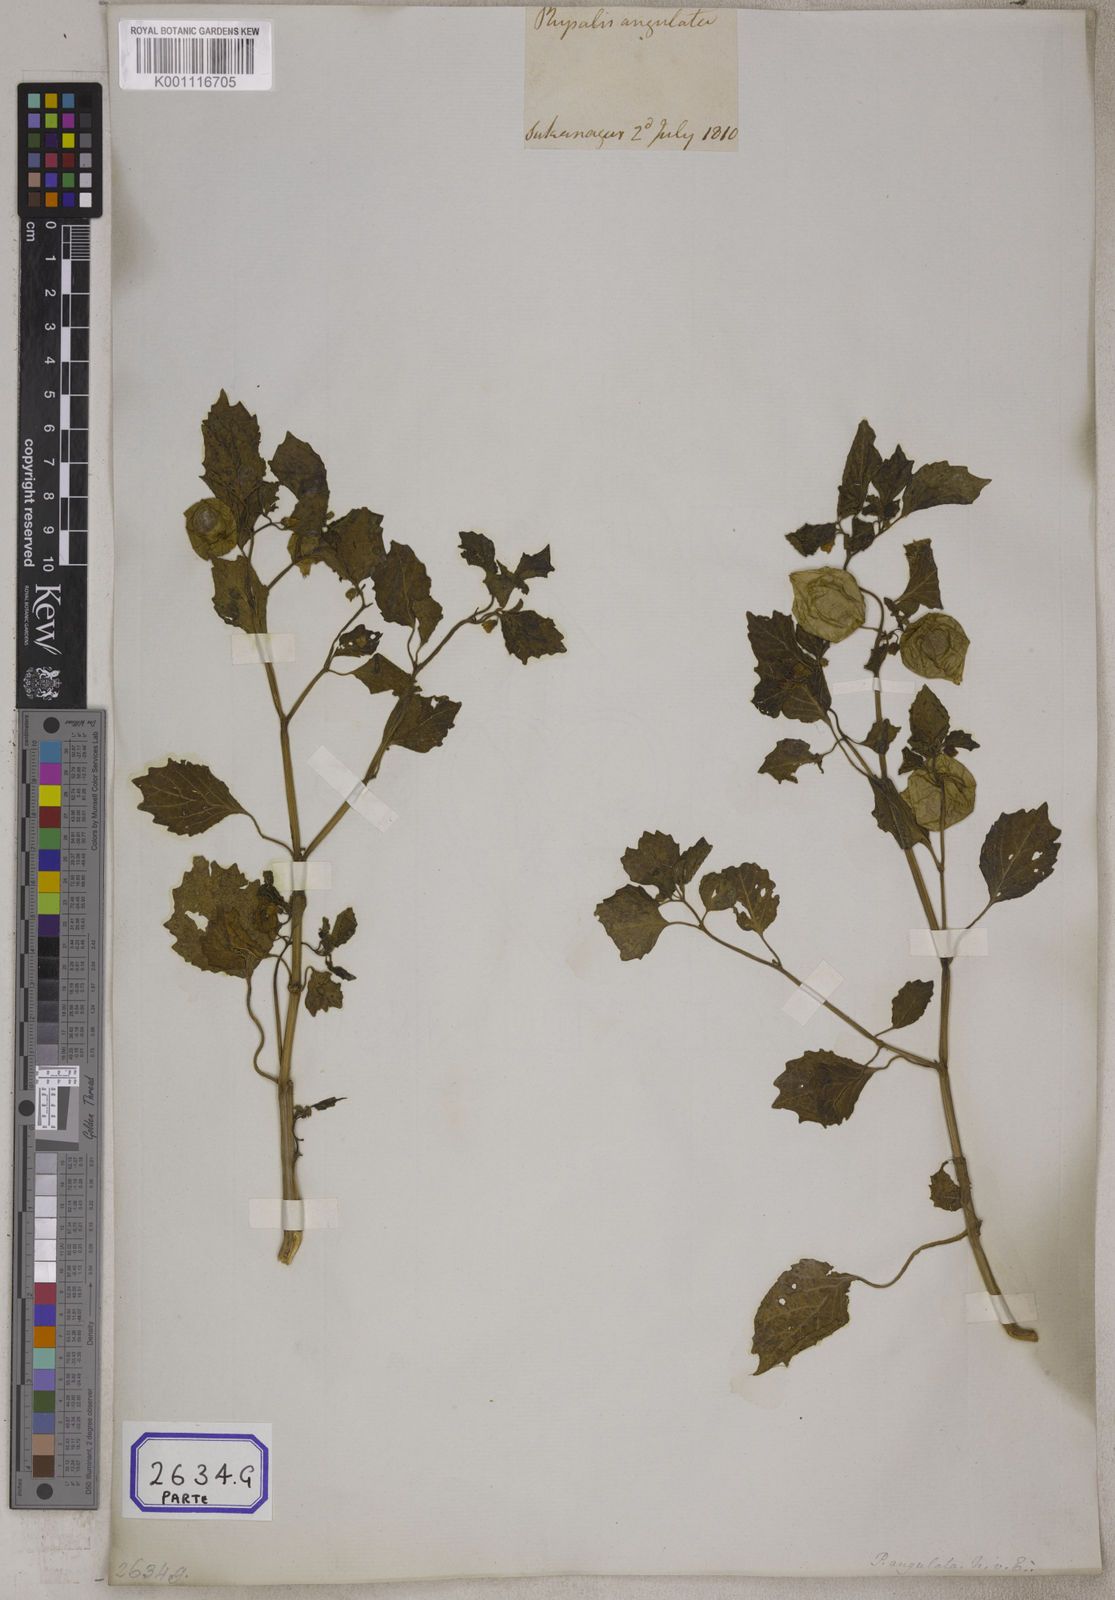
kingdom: Plantae
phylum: Tracheophyta
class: Magnoliopsida
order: Solanales
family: Solanaceae
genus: Physalis
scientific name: Physalis peruviana
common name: Cape-gooseberry
